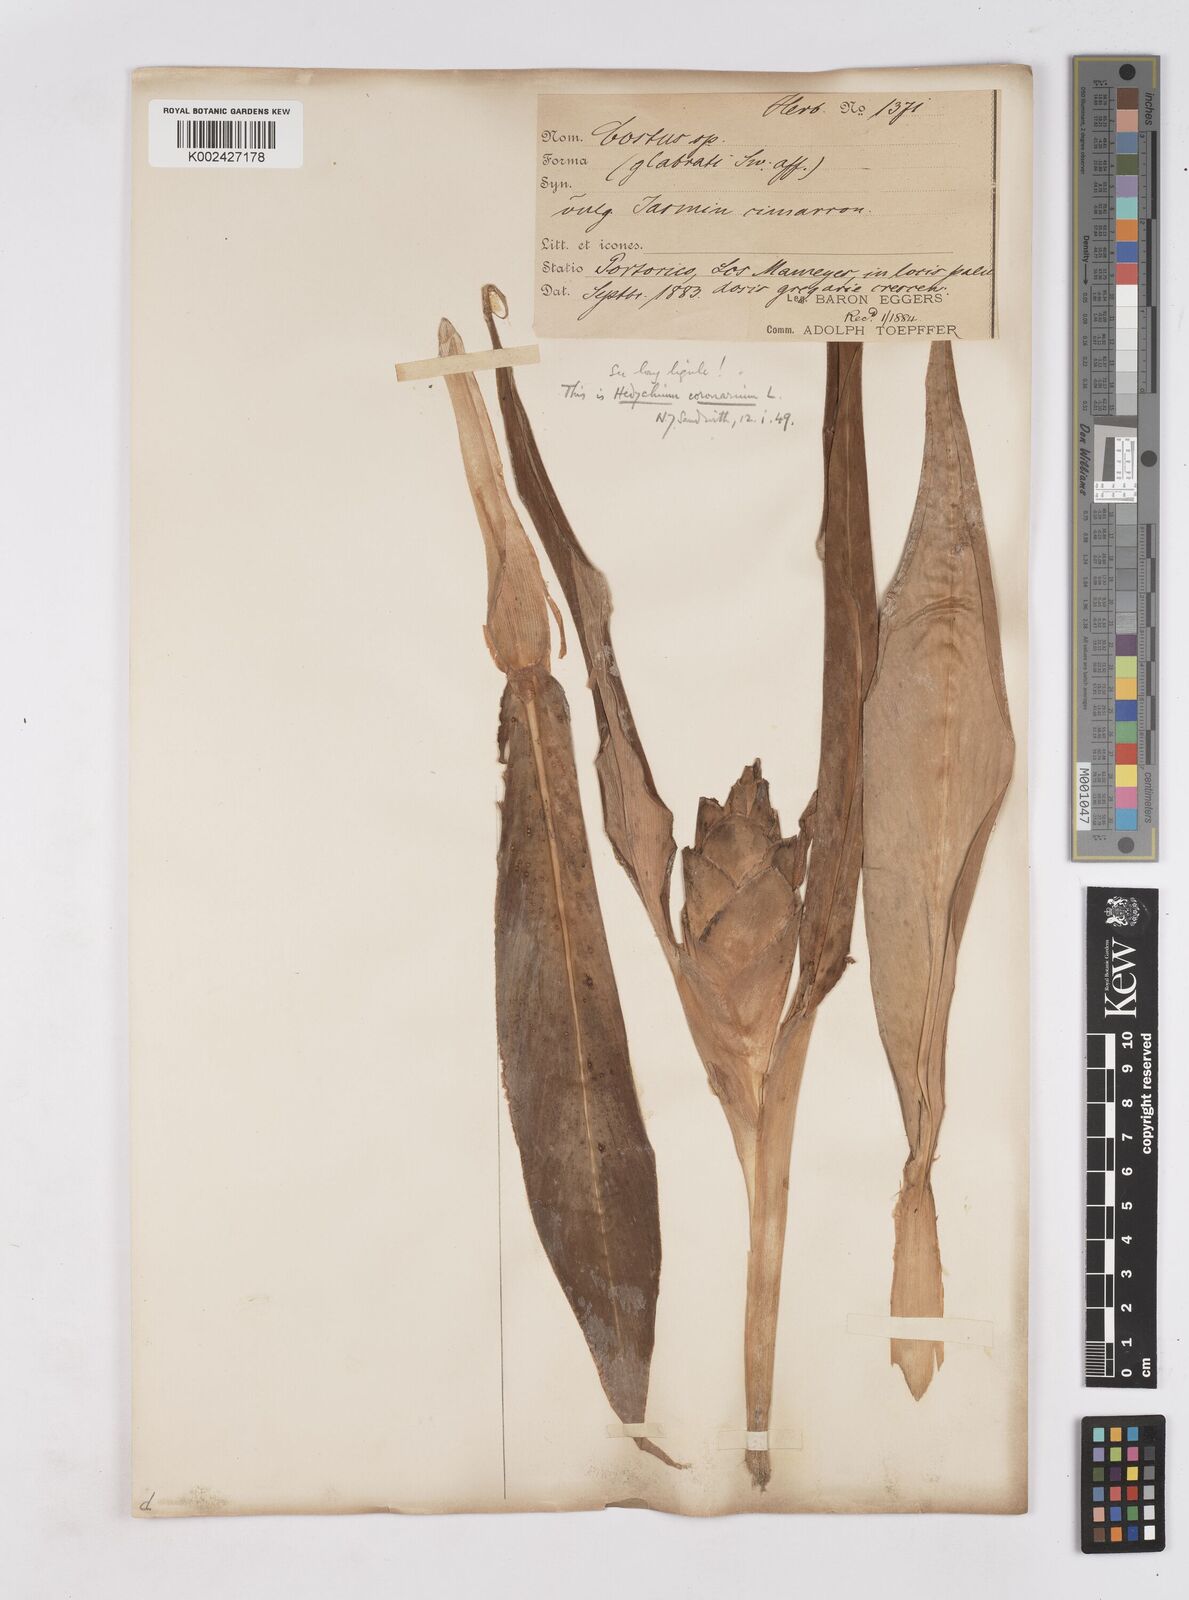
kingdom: Plantae
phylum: Tracheophyta
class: Liliopsida
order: Zingiberales
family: Zingiberaceae
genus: Hedychium
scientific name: Hedychium coronarium
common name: White garland-lily
